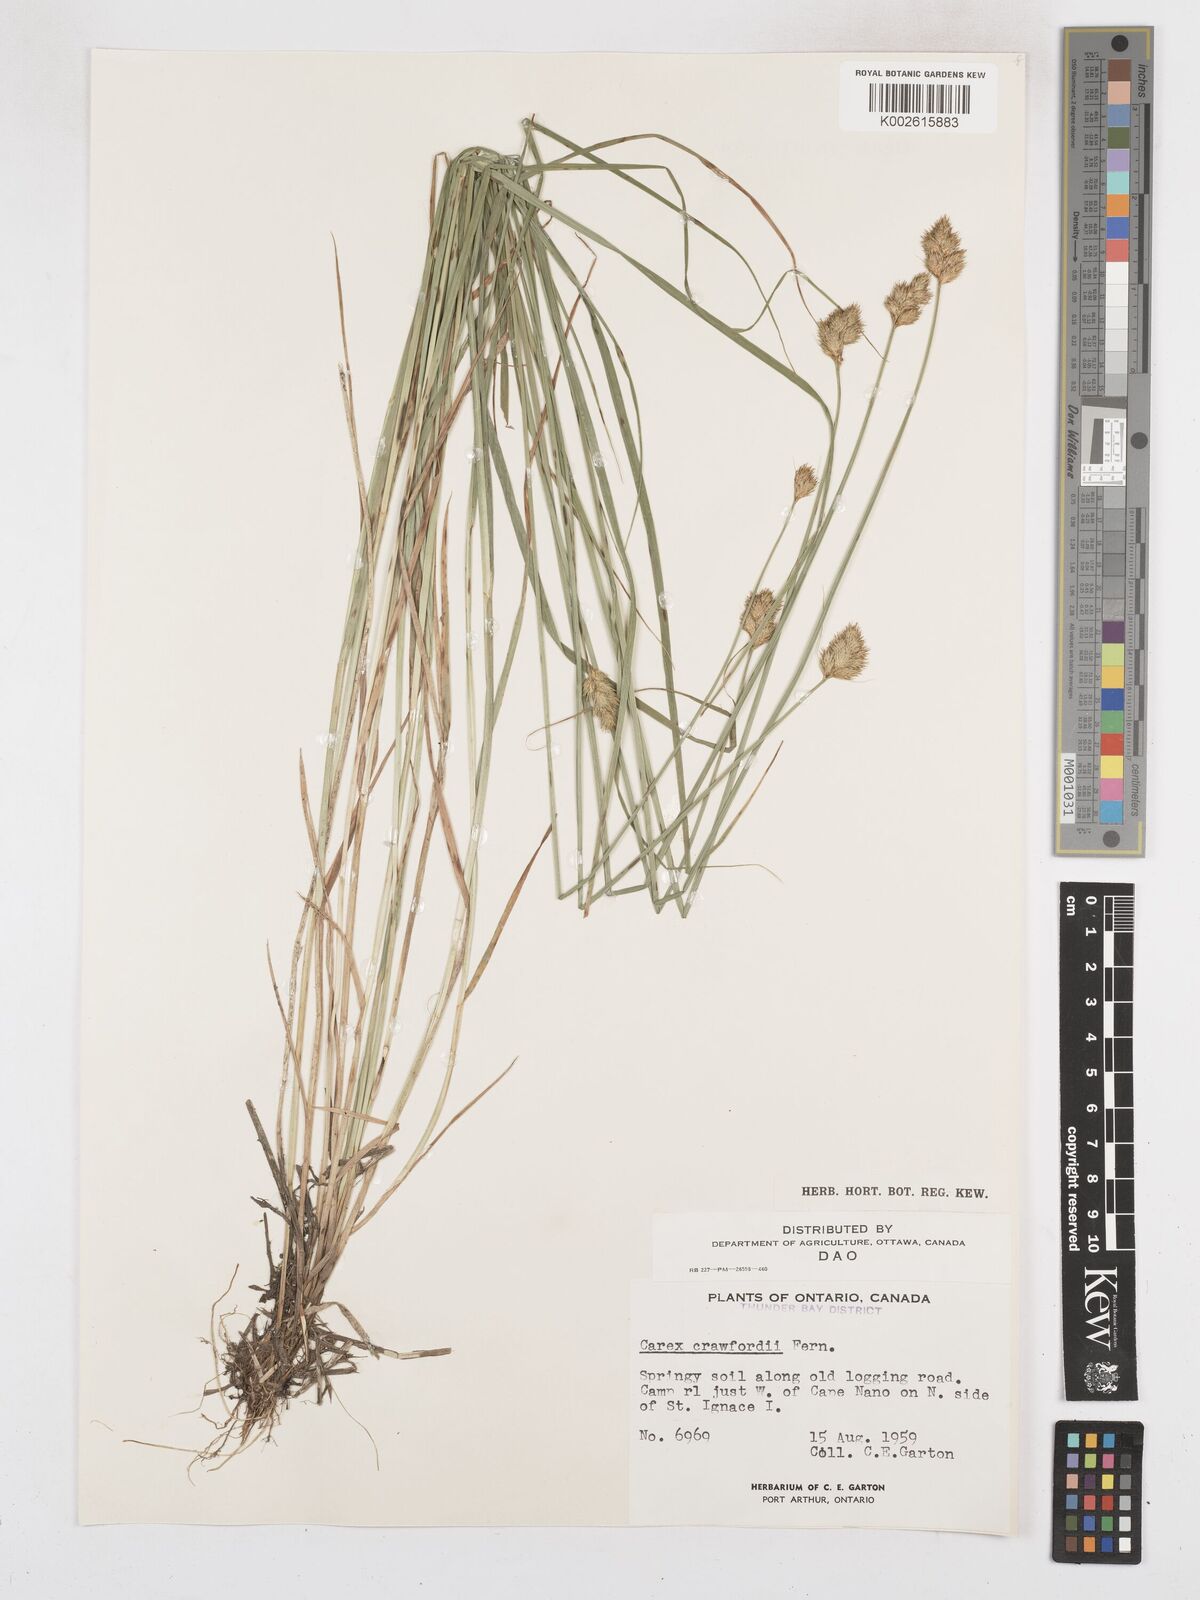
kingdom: Plantae
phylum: Tracheophyta
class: Liliopsida
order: Poales
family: Cyperaceae
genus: Carex
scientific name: Carex crawfordii
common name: Crawford's sedge
